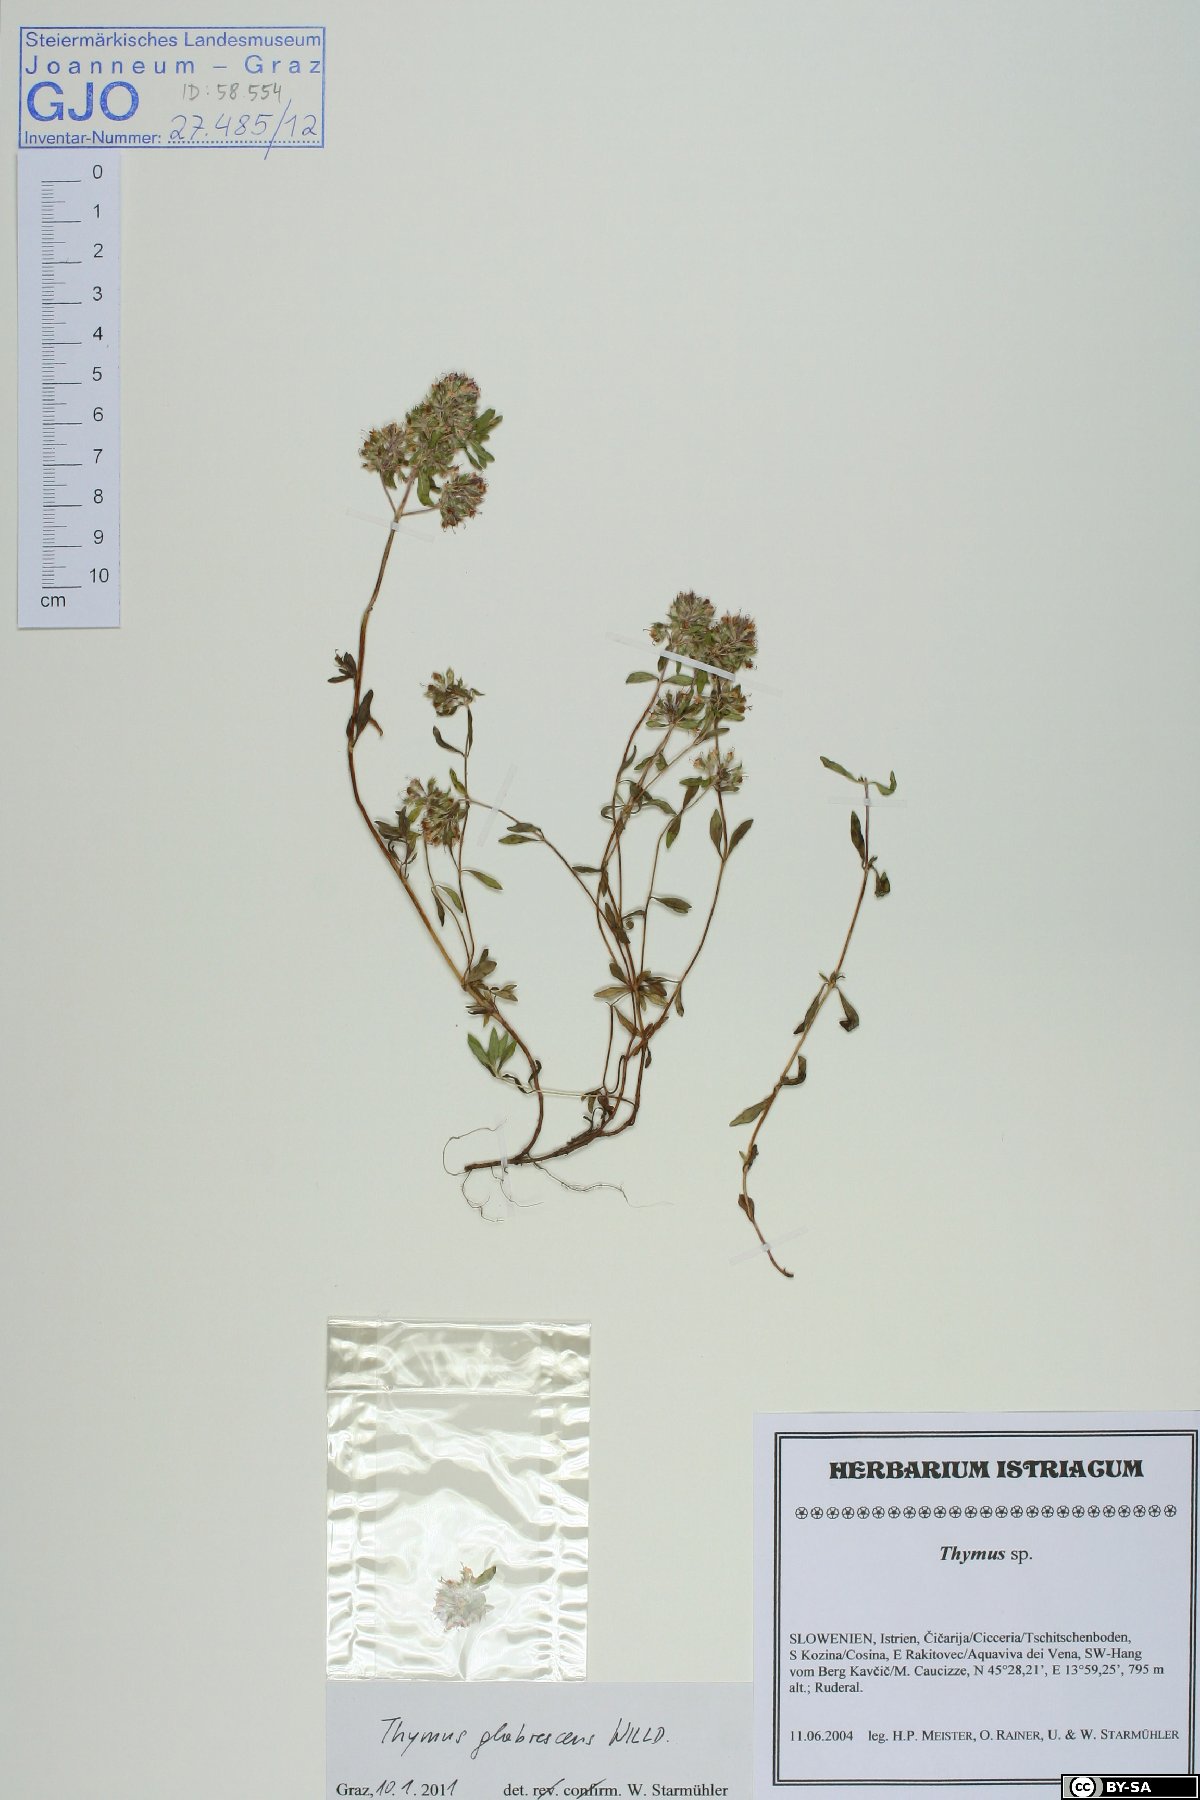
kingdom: Plantae
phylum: Tracheophyta
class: Magnoliopsida
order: Lamiales
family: Lamiaceae
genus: Thymus
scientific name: Thymus
